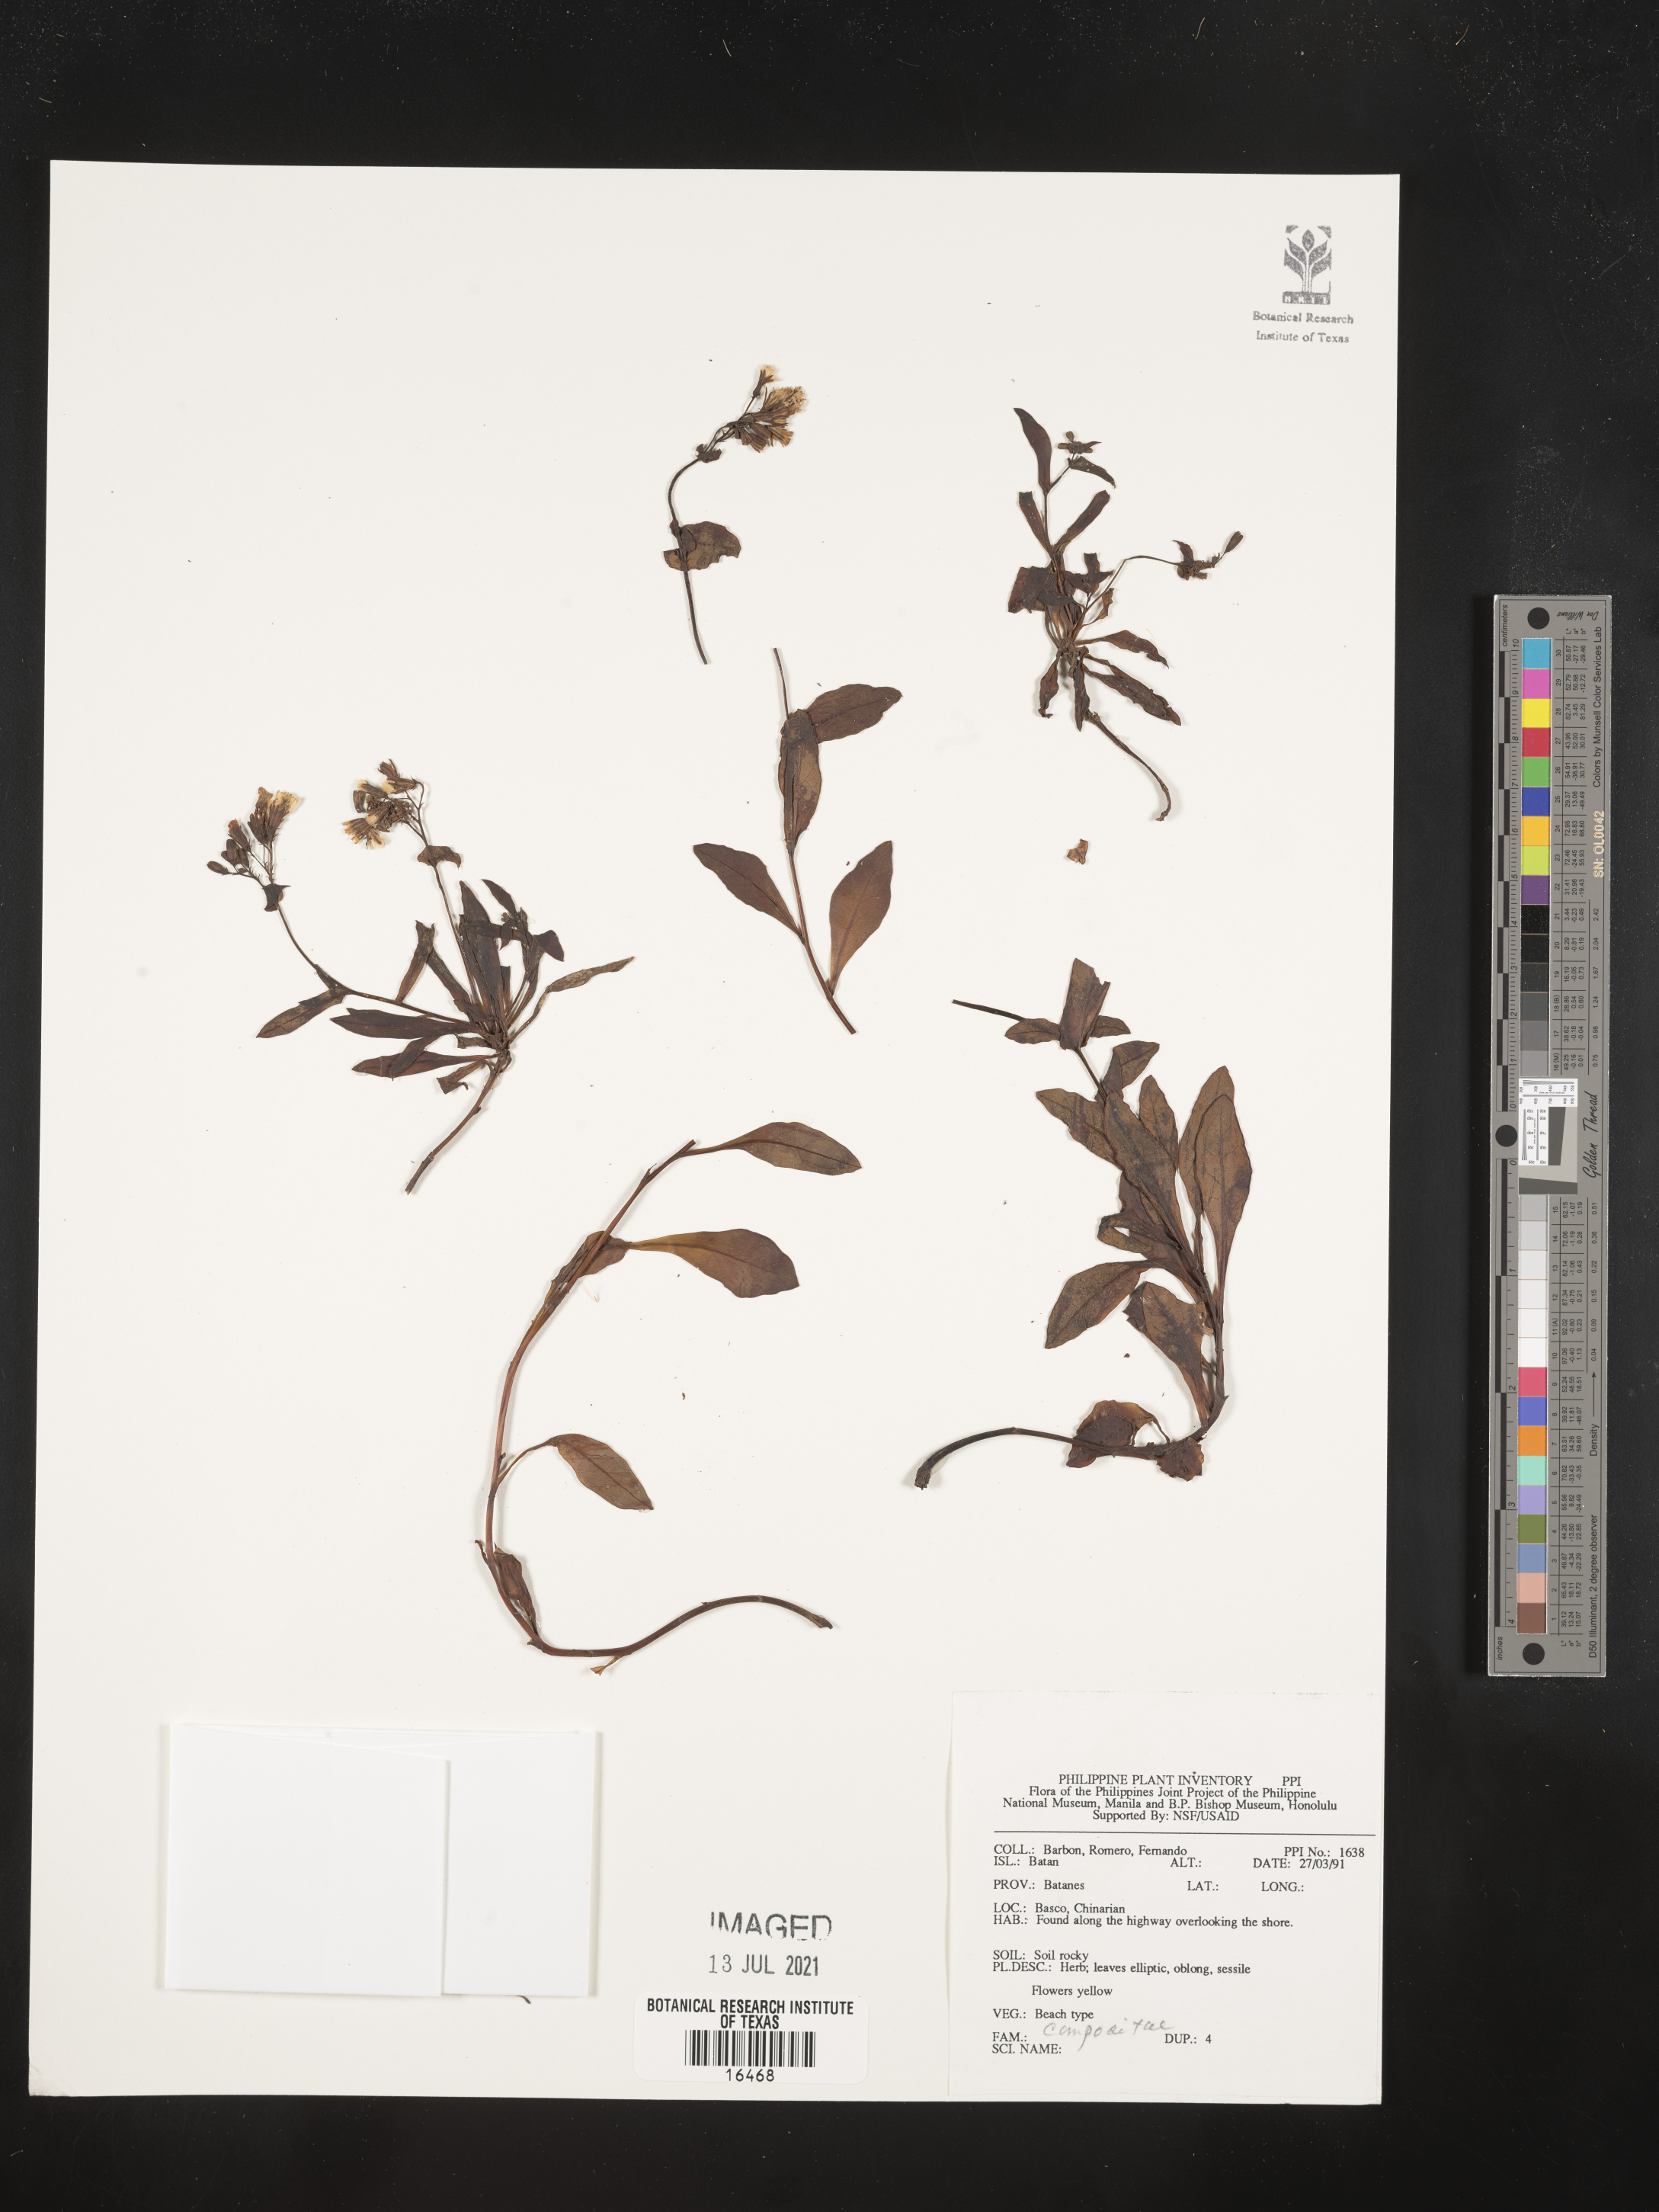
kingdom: Plantae
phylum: Tracheophyta
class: Magnoliopsida
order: Asterales
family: Asteraceae
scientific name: Asteraceae
